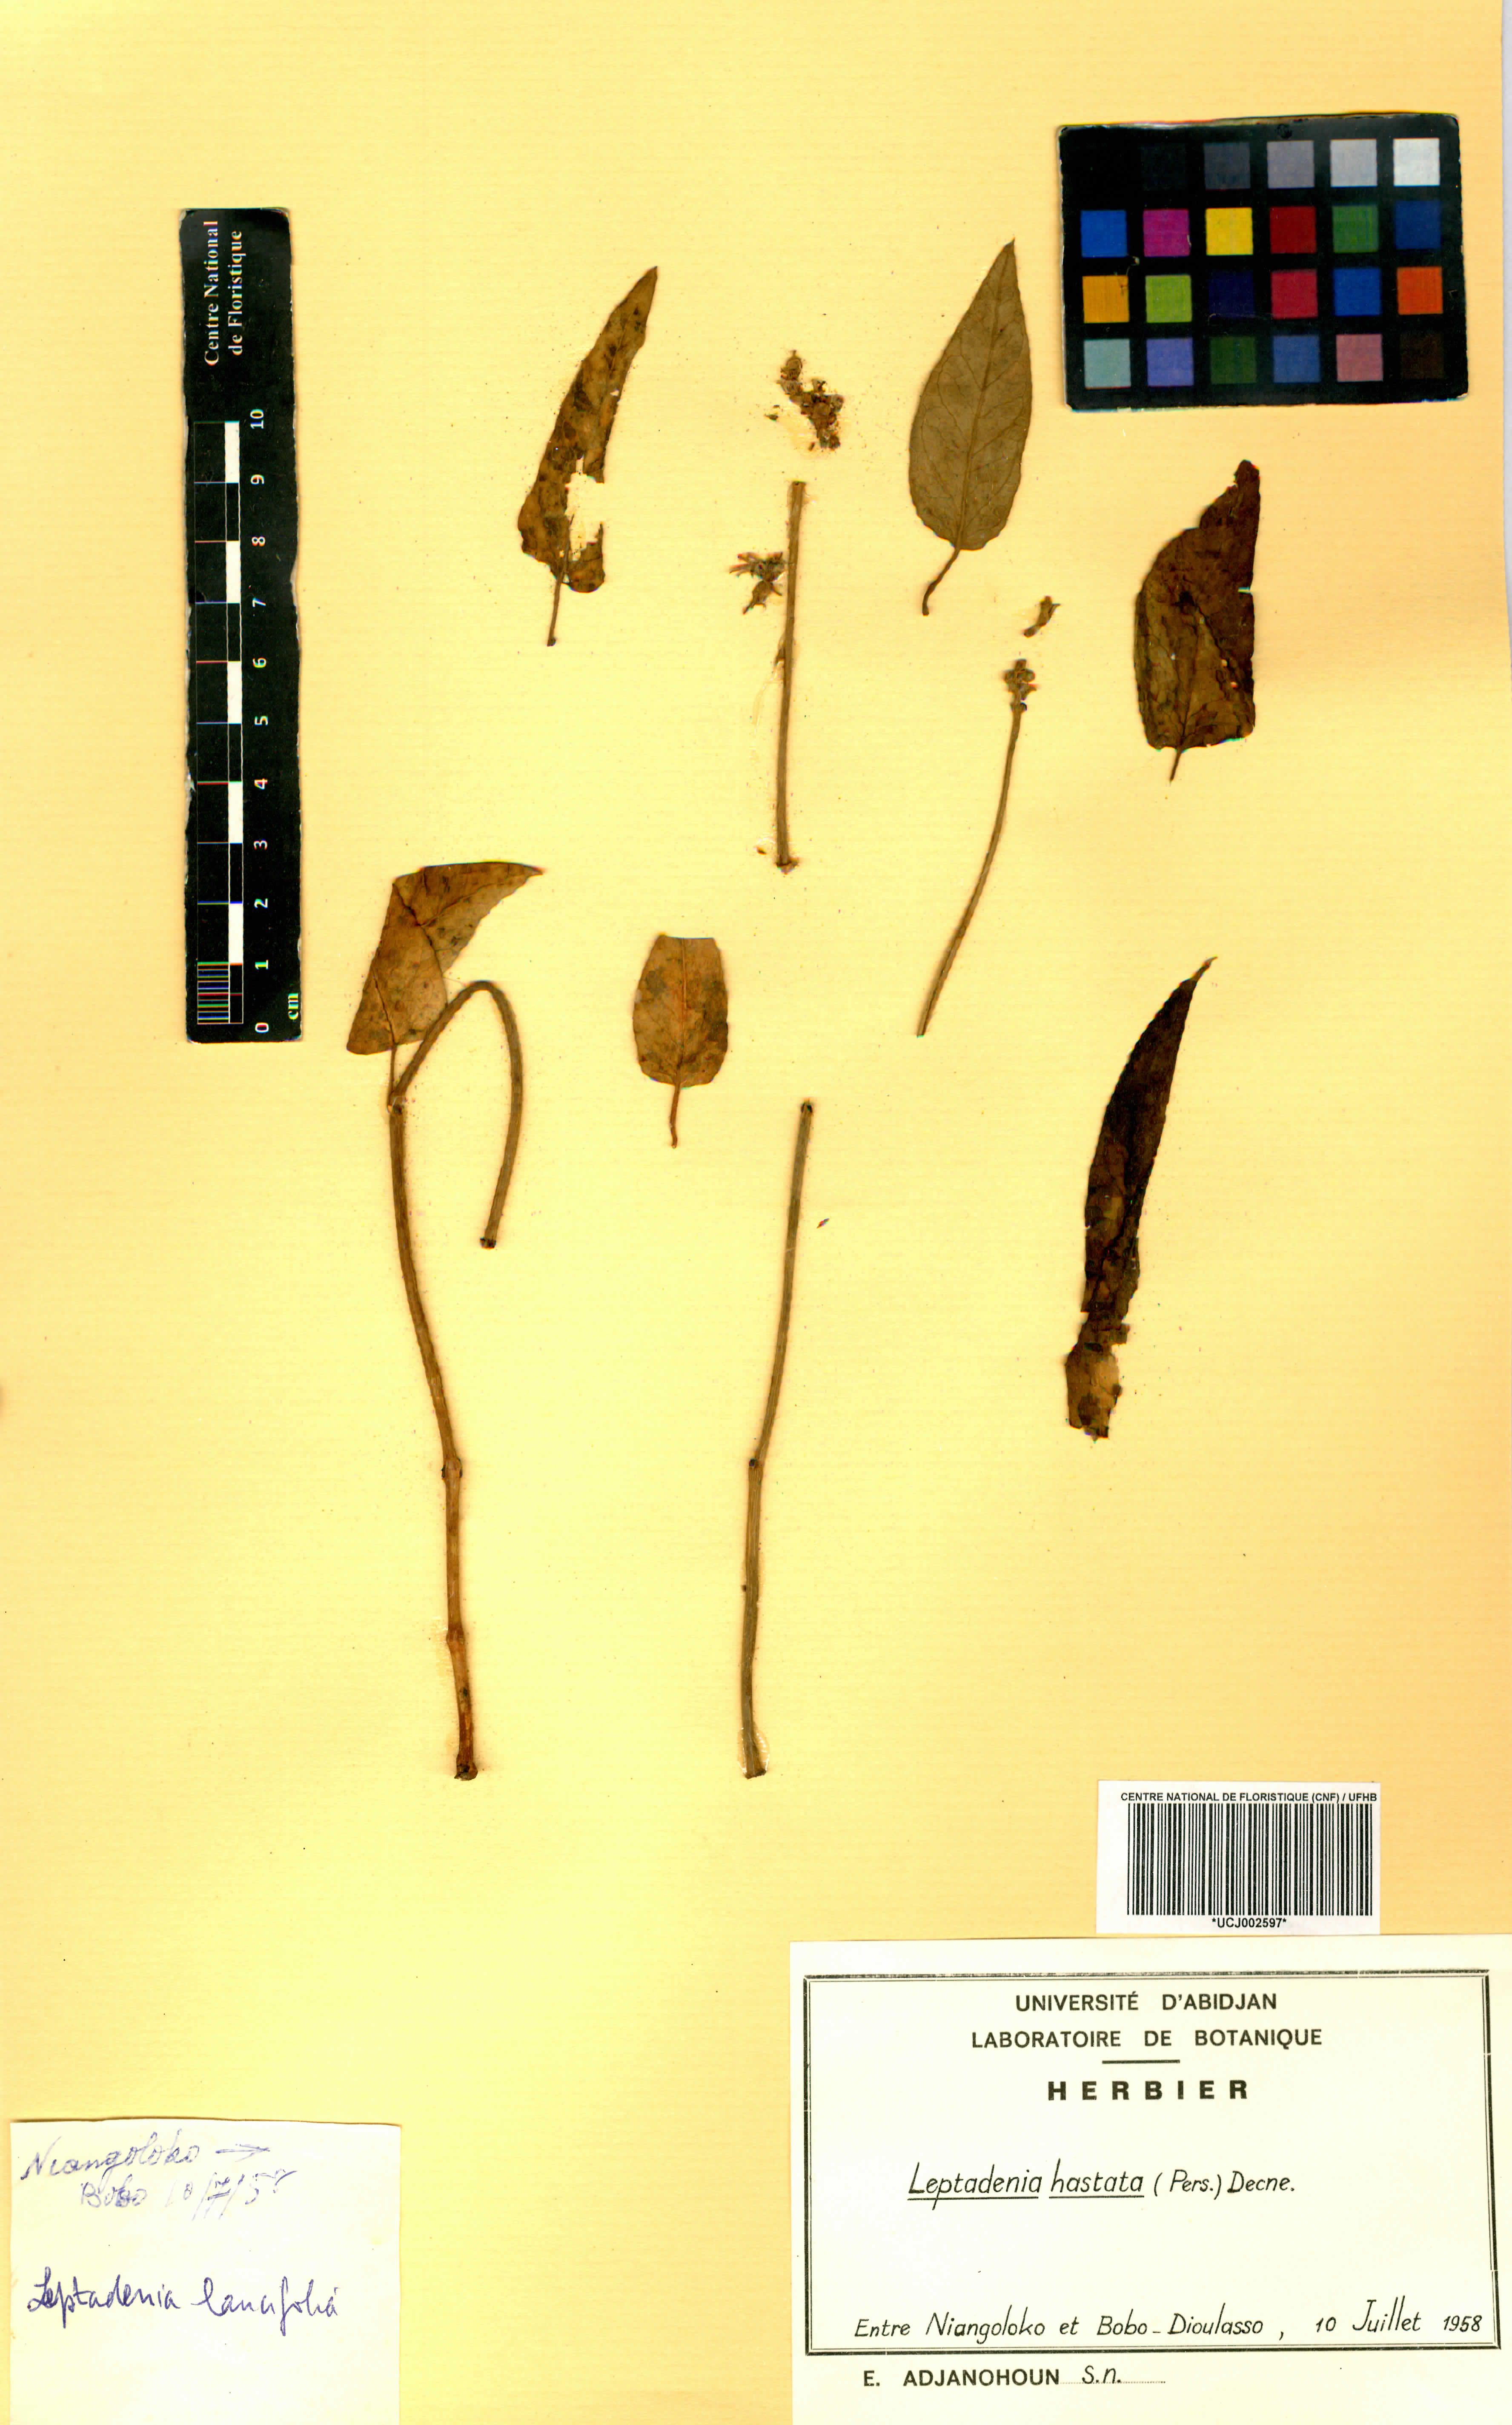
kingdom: Plantae
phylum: Tracheophyta
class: Magnoliopsida
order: Gentianales
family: Apocynaceae
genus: Leptadenia
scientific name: Leptadenia lanceolata
